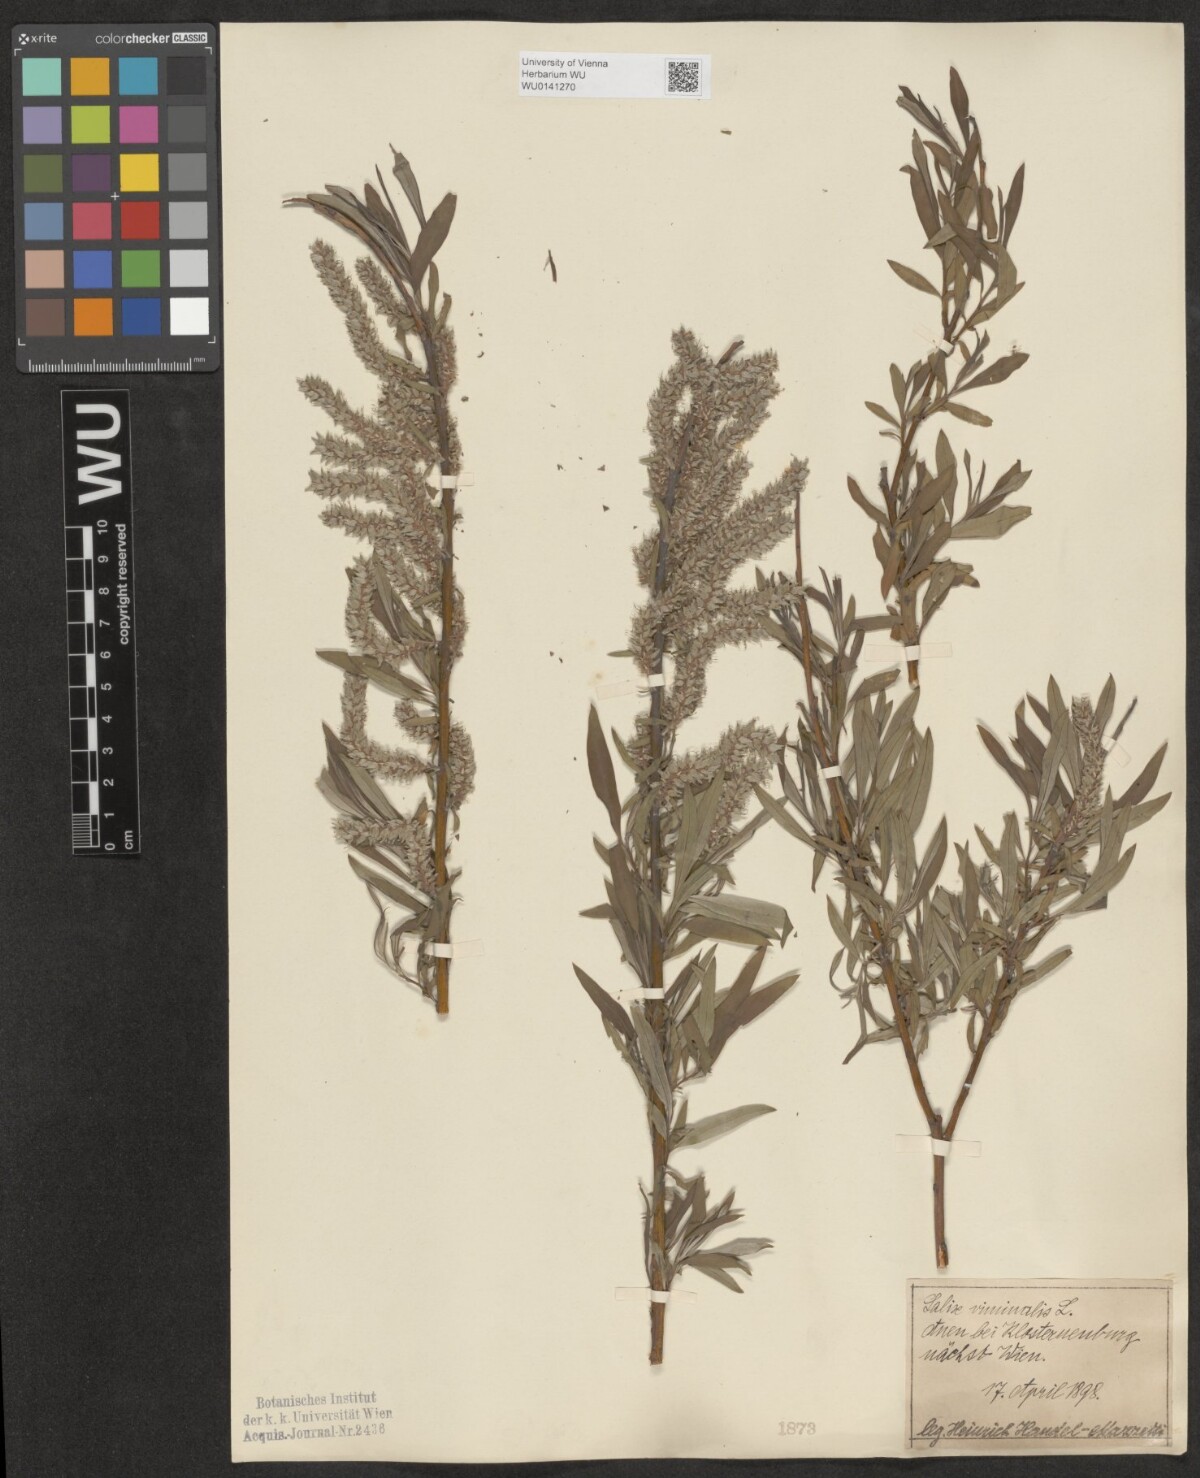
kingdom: Plantae
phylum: Tracheophyta
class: Magnoliopsida
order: Malpighiales
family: Salicaceae
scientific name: Salicaceae
